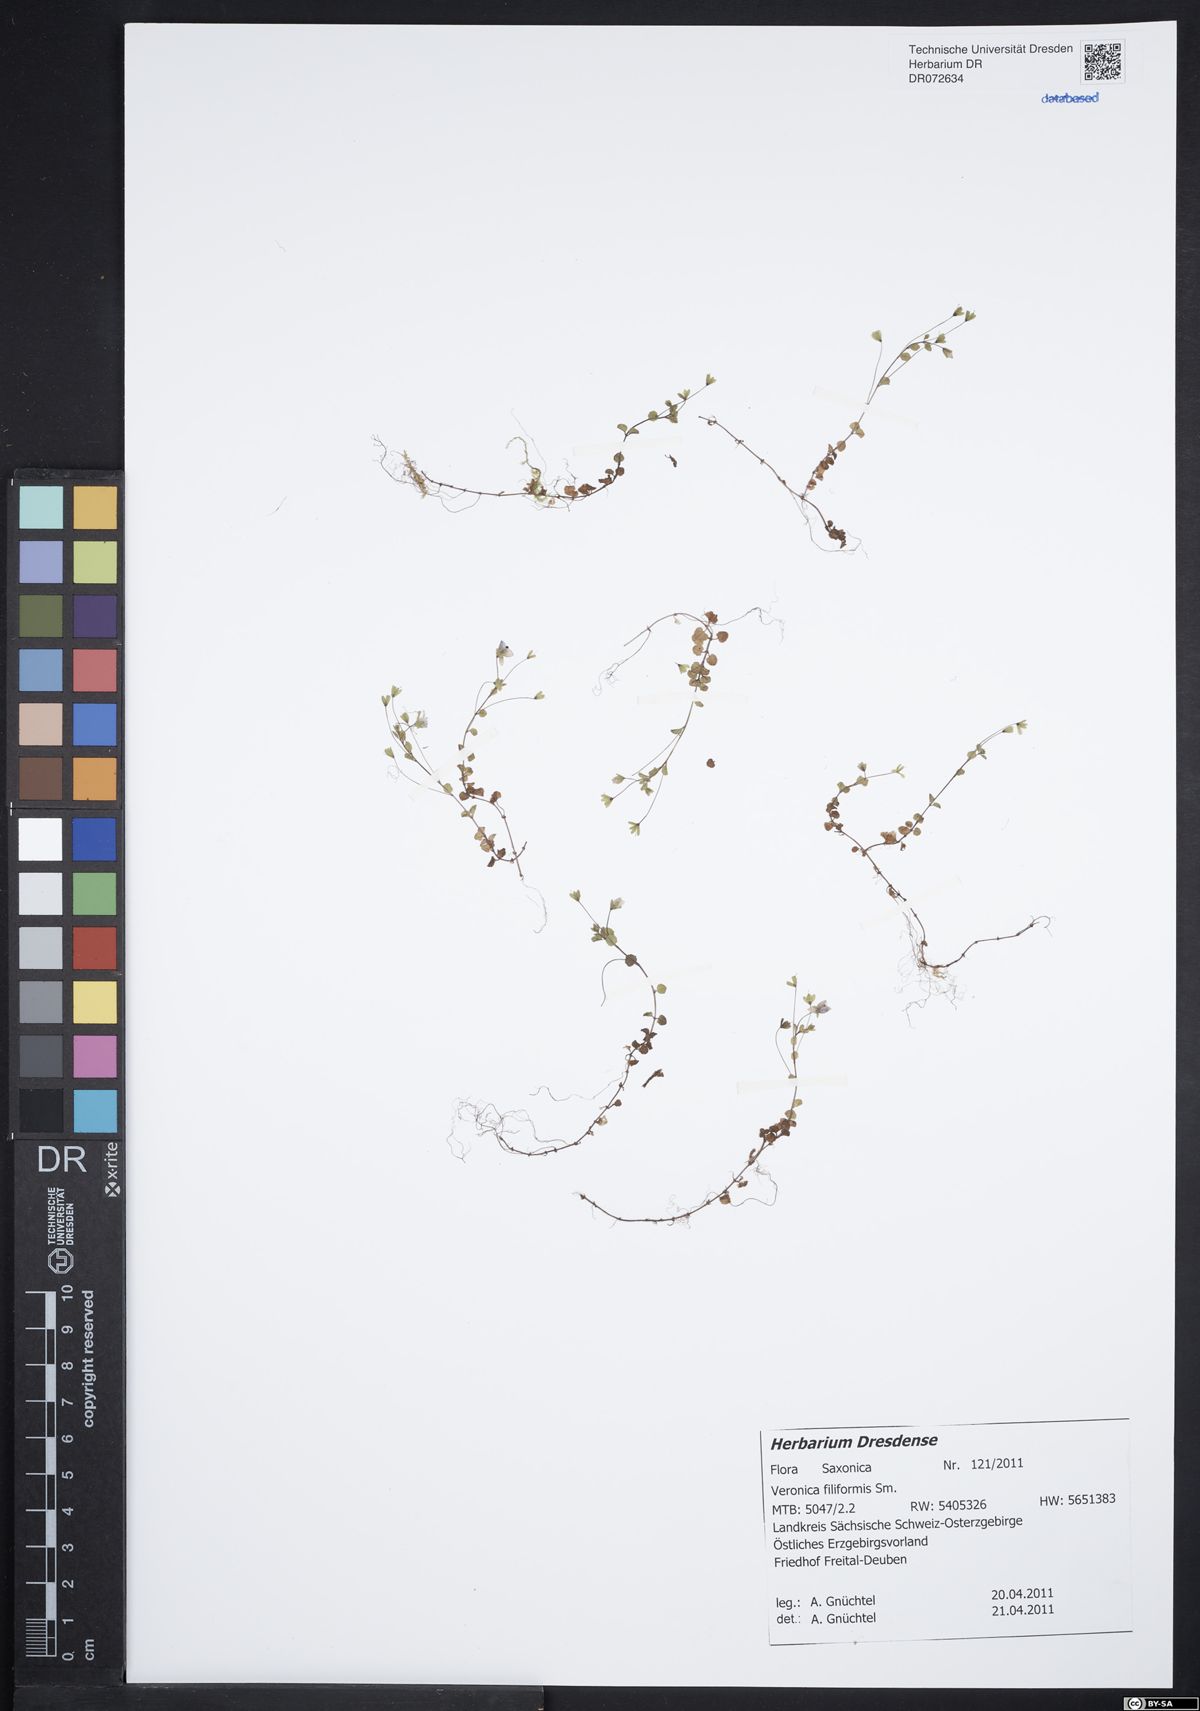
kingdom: Plantae
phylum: Tracheophyta
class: Magnoliopsida
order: Lamiales
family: Plantaginaceae
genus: Veronica
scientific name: Veronica filiformis
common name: Slender speedwell
